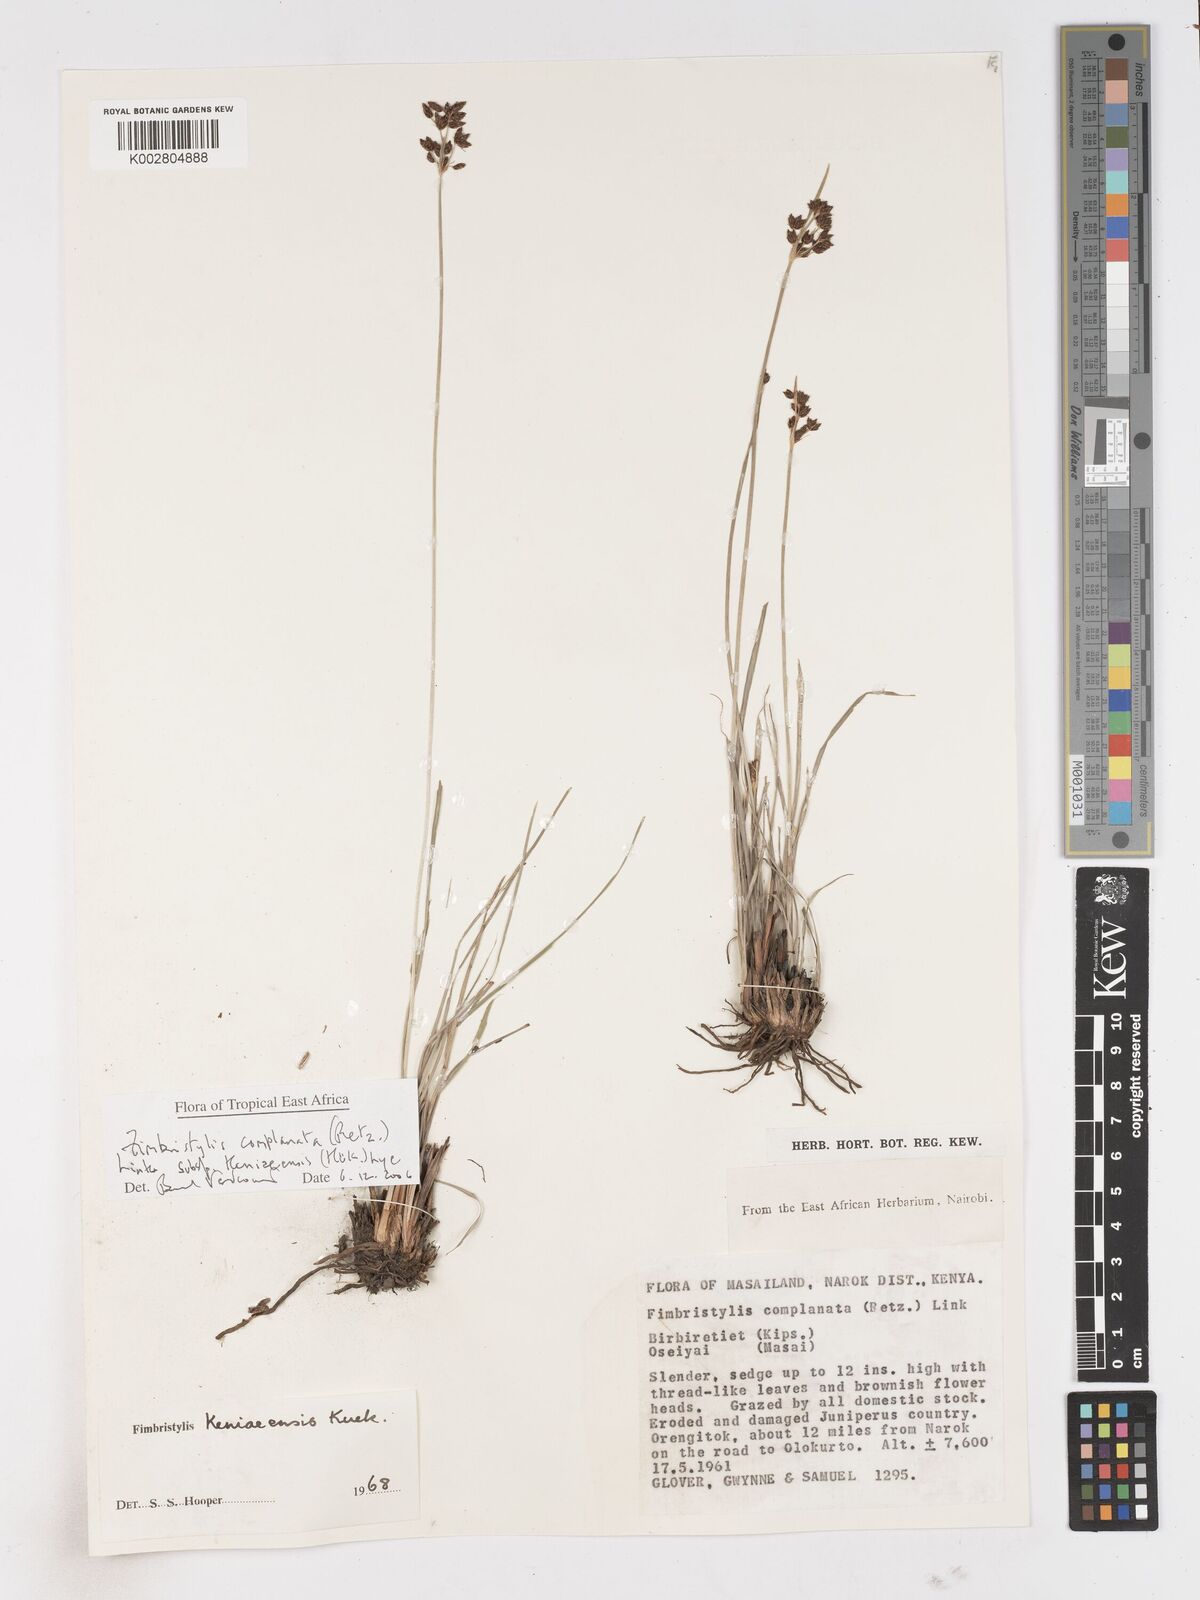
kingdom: Plantae
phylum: Tracheophyta
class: Liliopsida
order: Poales
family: Cyperaceae
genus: Fimbristylis
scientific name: Fimbristylis complanata
